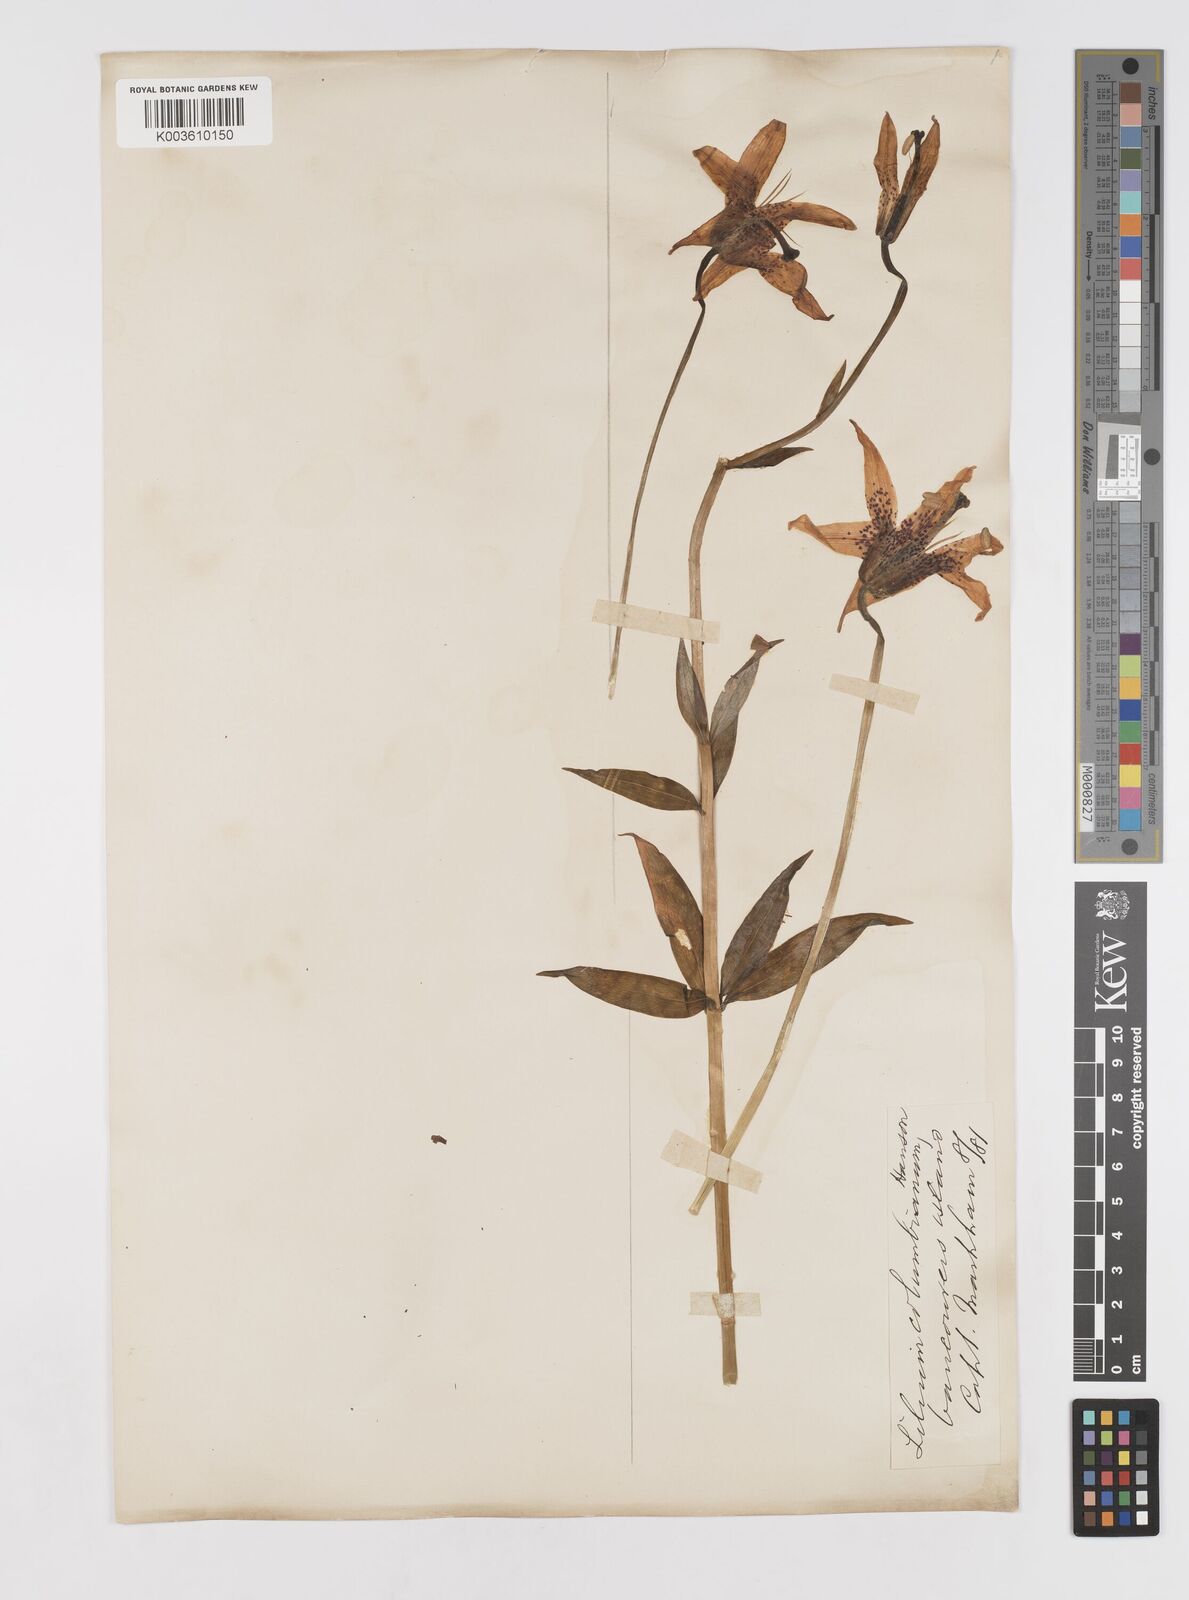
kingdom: Plantae
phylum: Tracheophyta
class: Liliopsida
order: Liliales
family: Liliaceae
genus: Lilium
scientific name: Lilium columbianum
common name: Columbia lily
